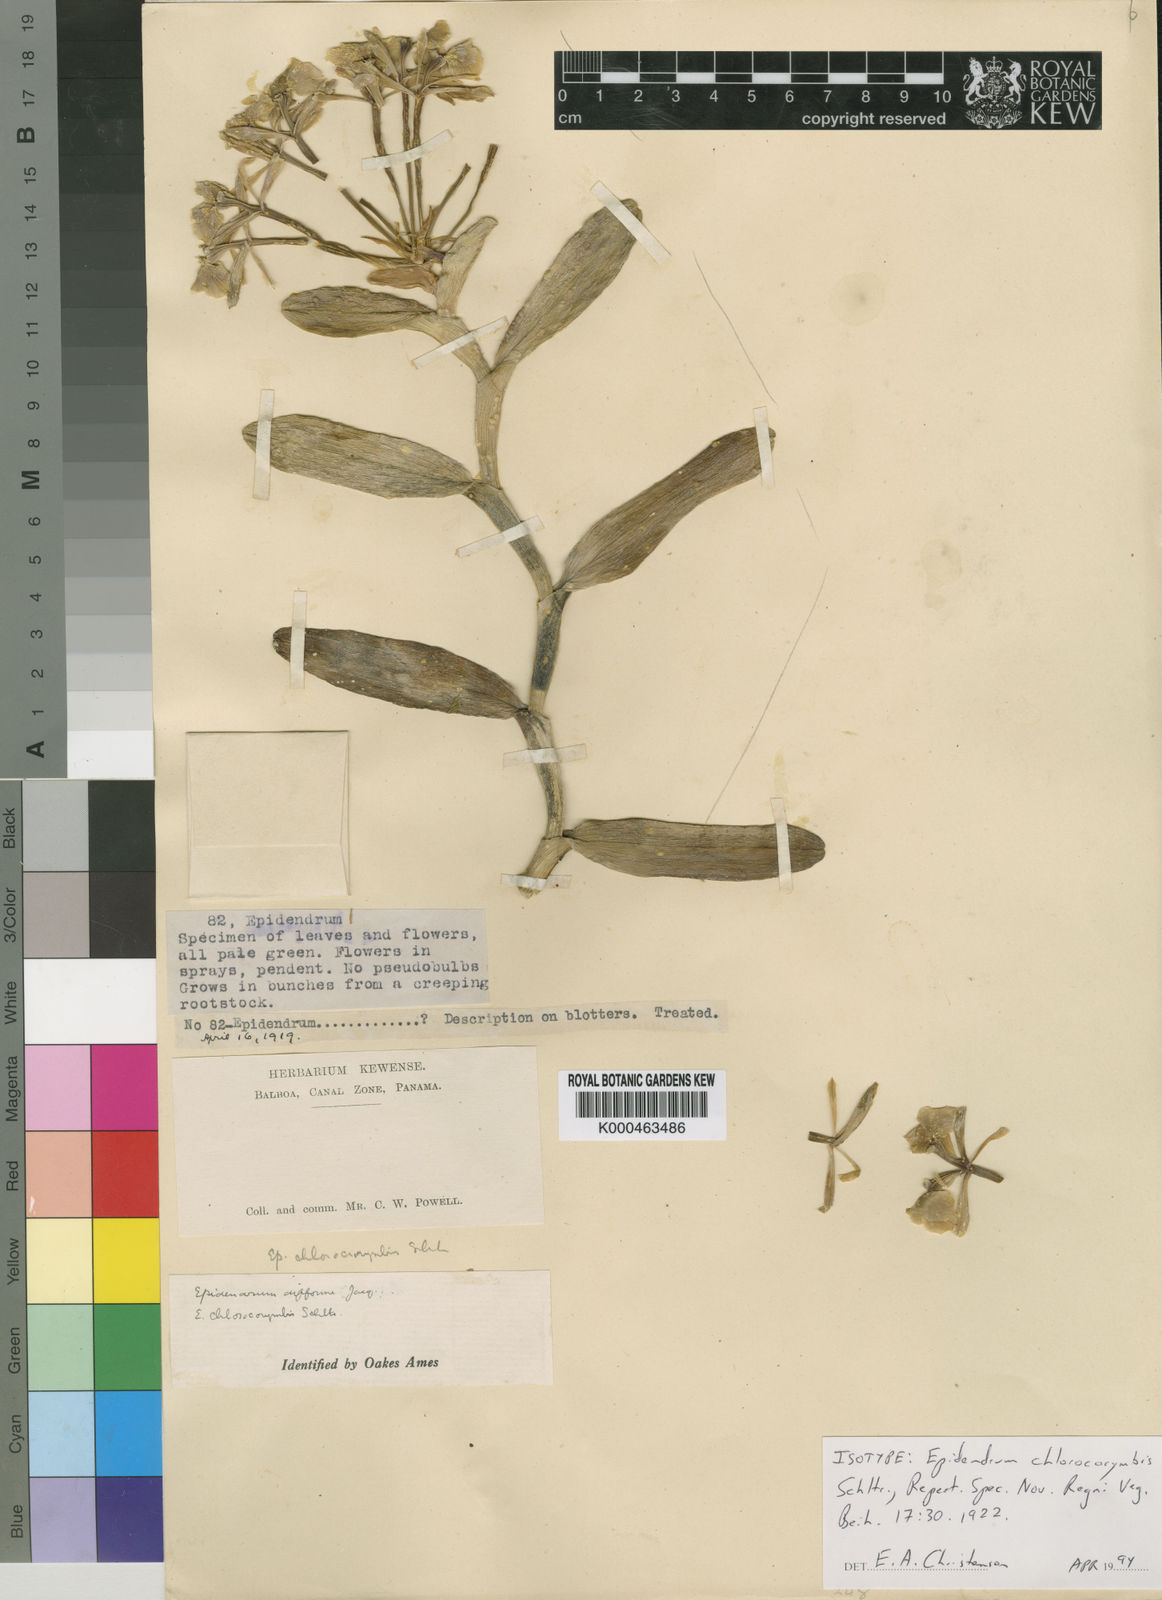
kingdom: Plantae
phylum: Tracheophyta
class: Liliopsida
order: Asparagales
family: Orchidaceae
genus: Epidendrum
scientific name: Epidendrum chlorocorymbos
